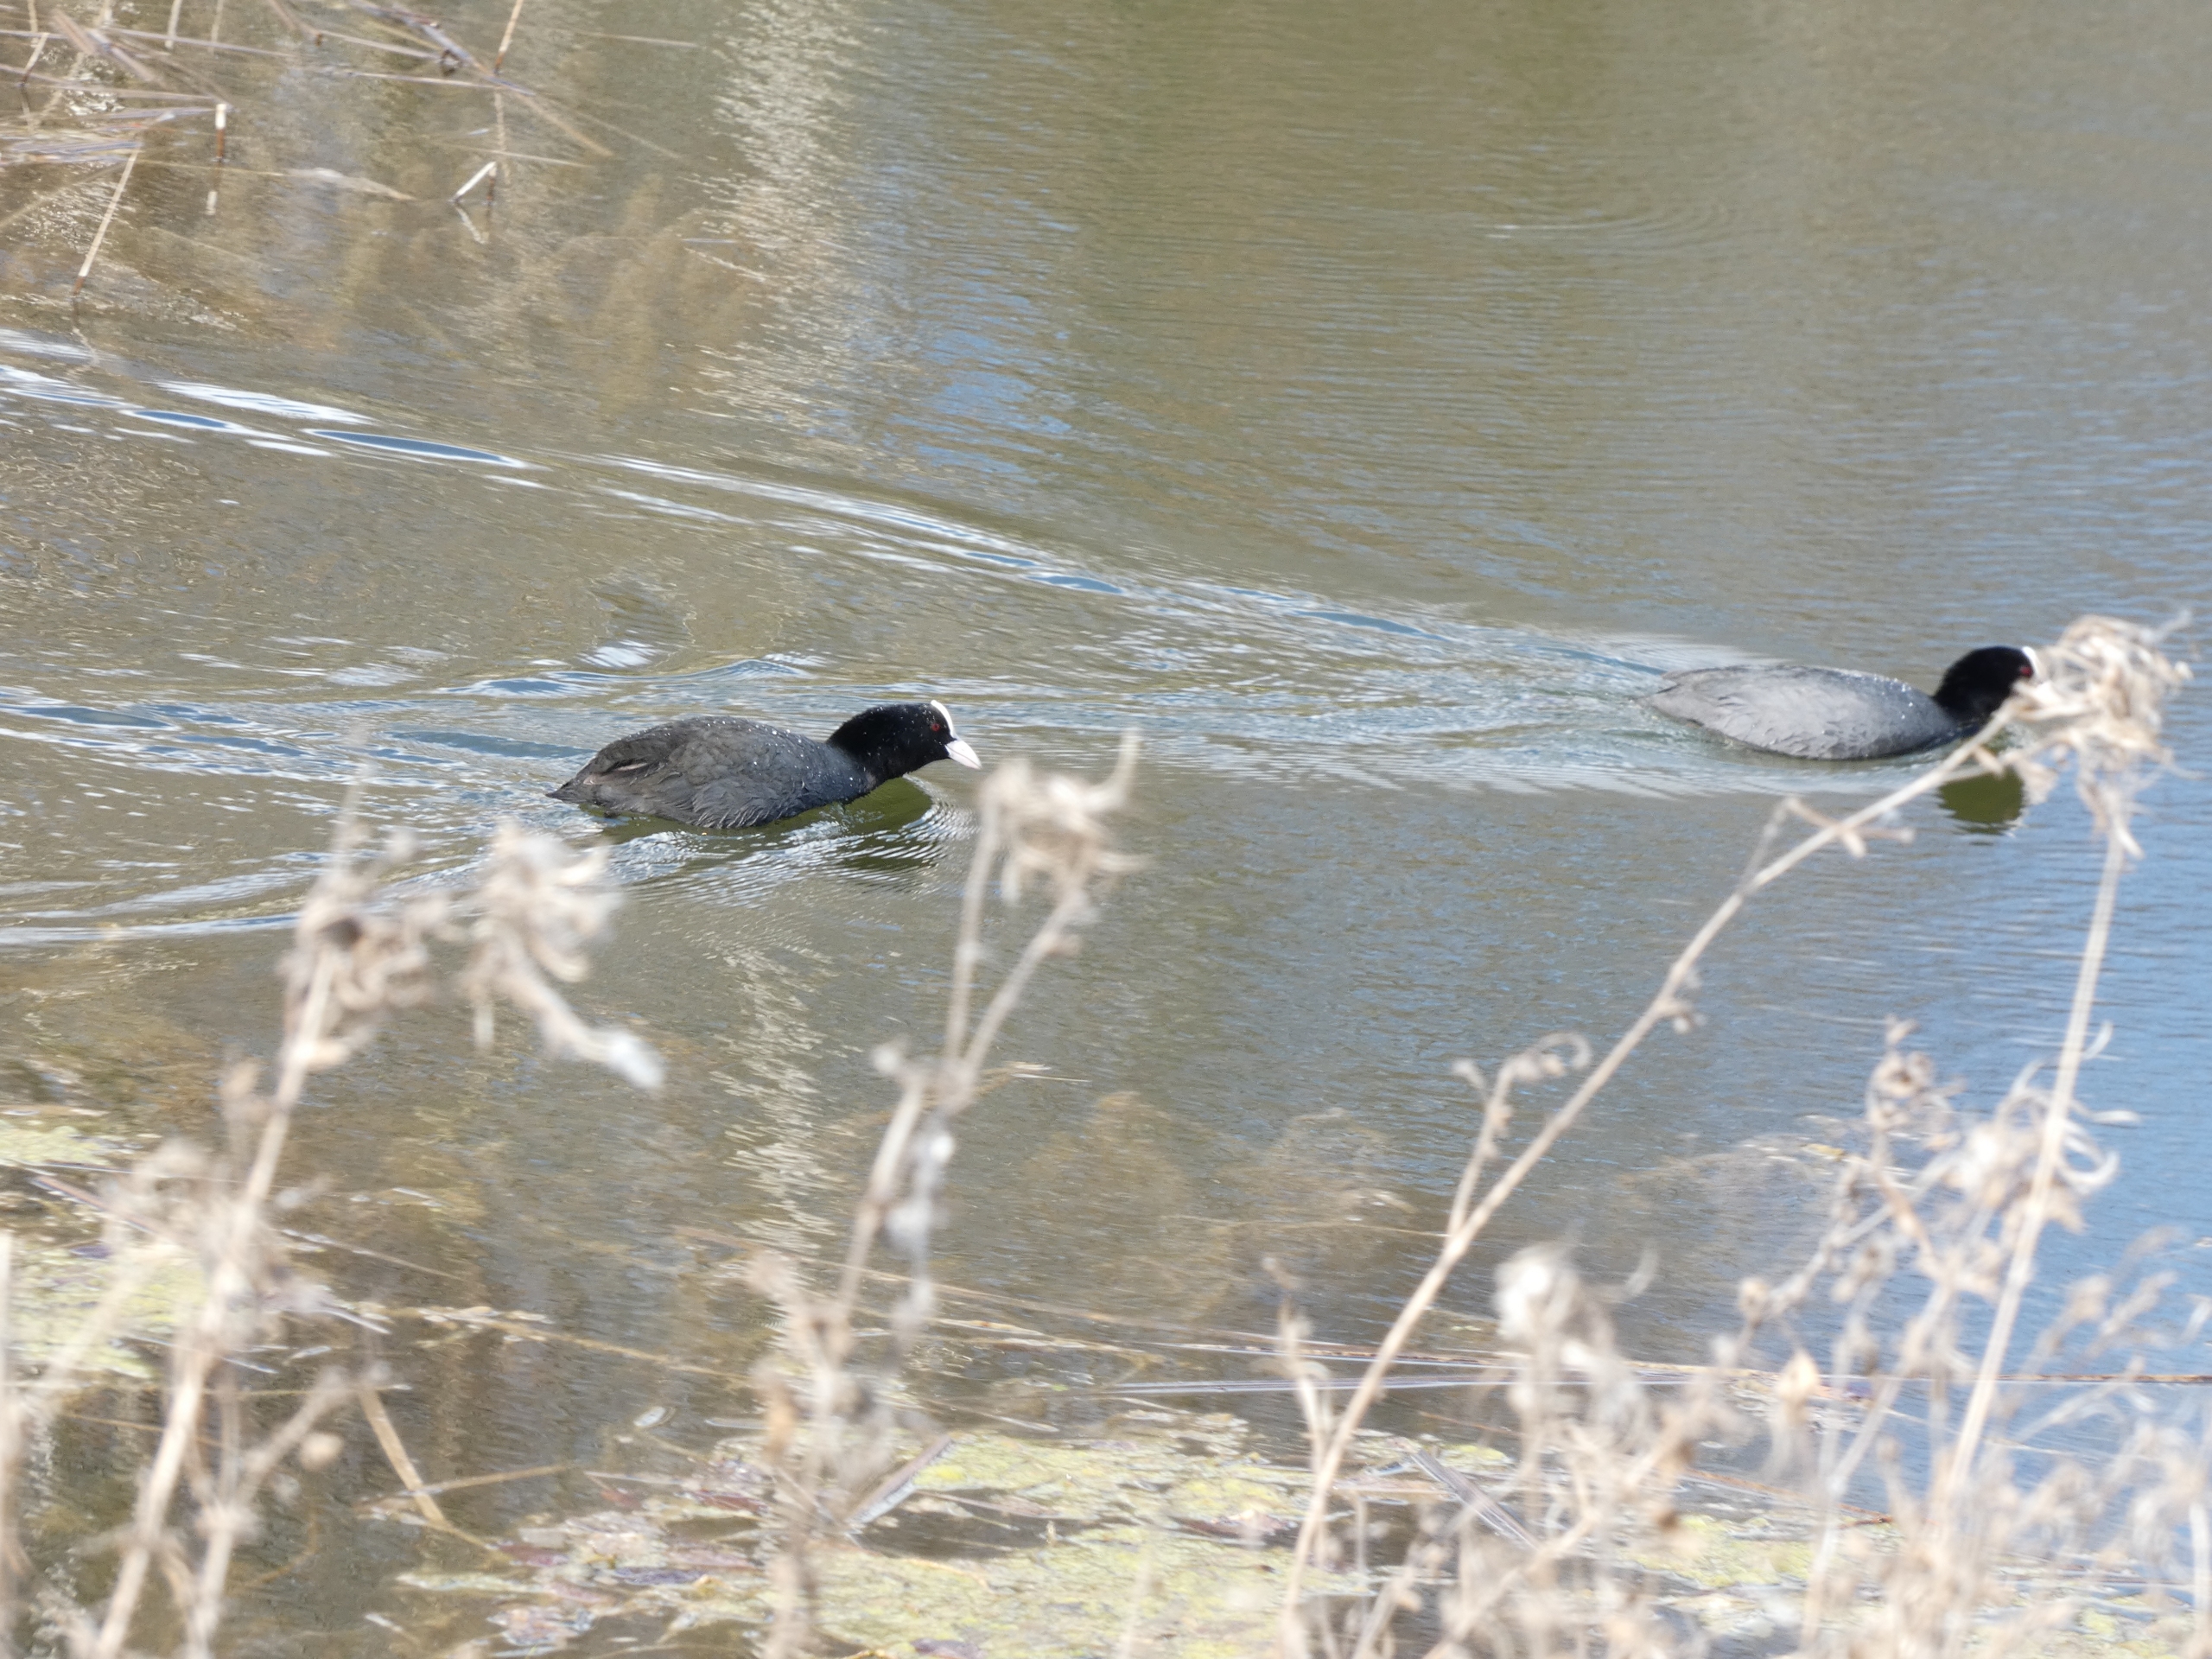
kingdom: Animalia
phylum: Chordata
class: Aves
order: Gruiformes
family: Rallidae
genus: Fulica
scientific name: Fulica atra
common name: Blishøne
